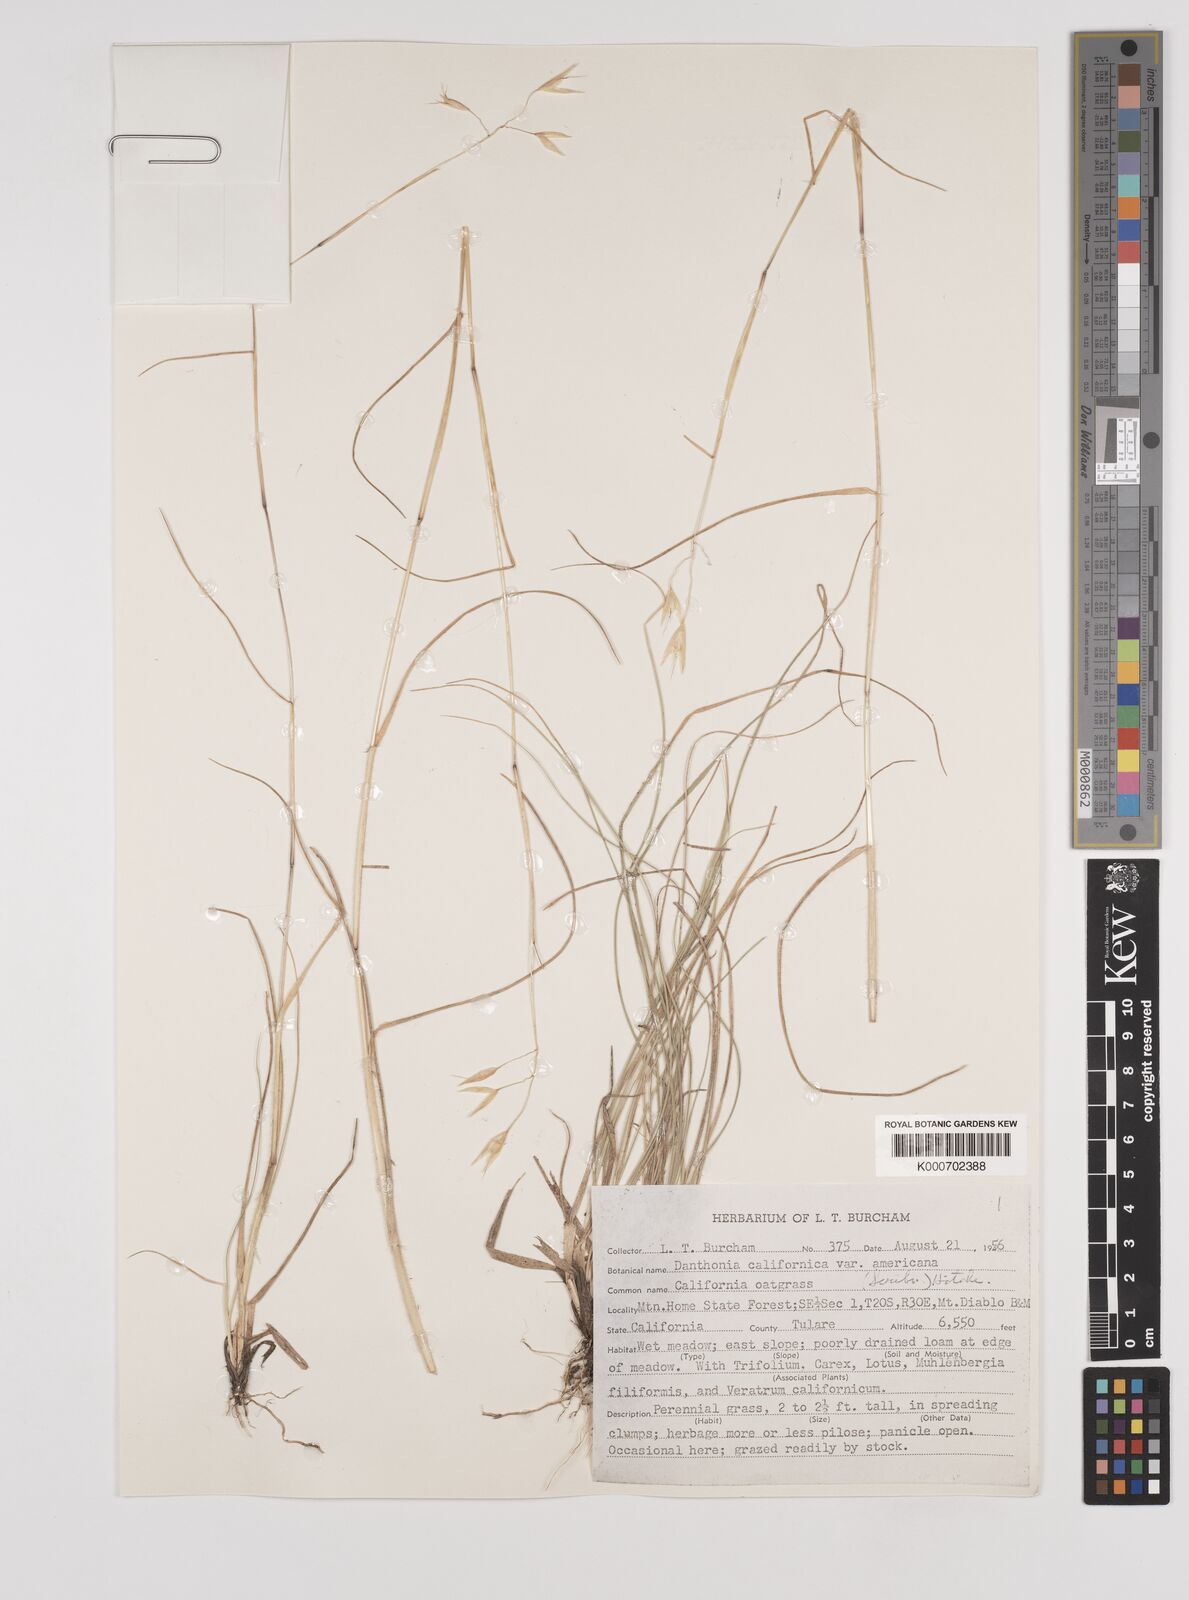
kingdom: Plantae
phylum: Tracheophyta
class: Liliopsida
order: Poales
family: Poaceae
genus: Danthonia
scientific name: Danthonia californica
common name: California oat grass
